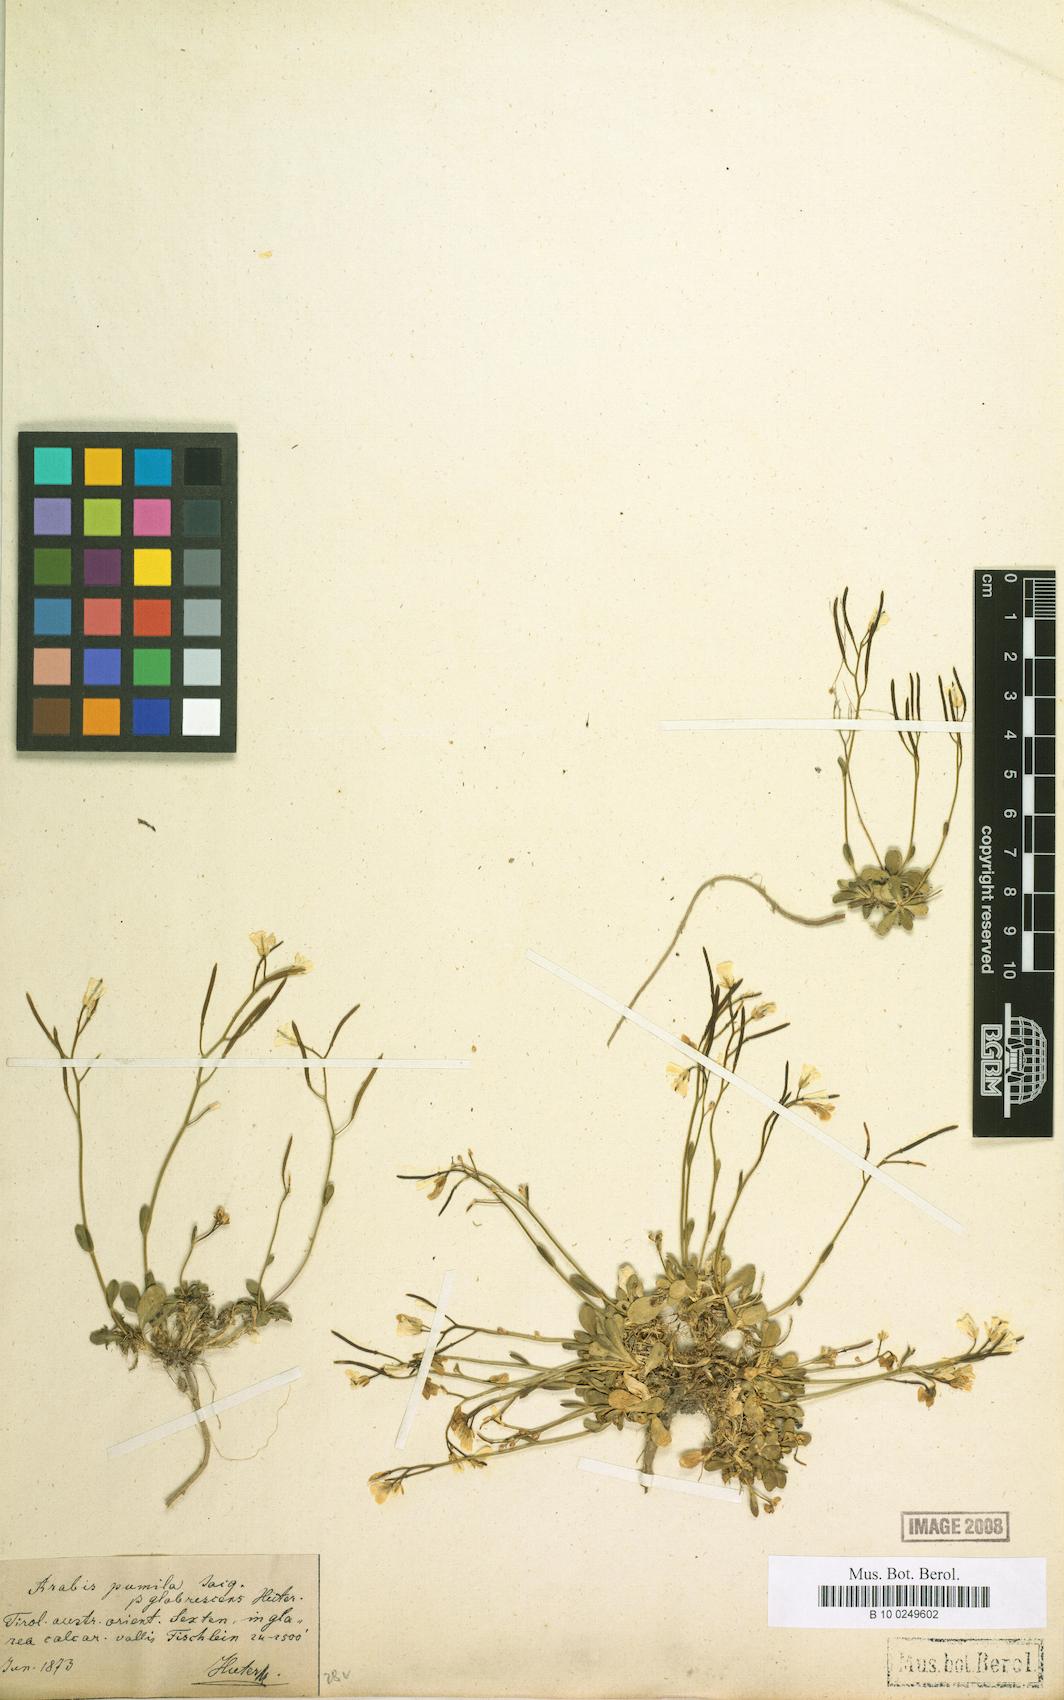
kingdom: Plantae
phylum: Tracheophyta
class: Magnoliopsida
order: Brassicales
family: Brassicaceae
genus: Arabis
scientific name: Arabis pumila
